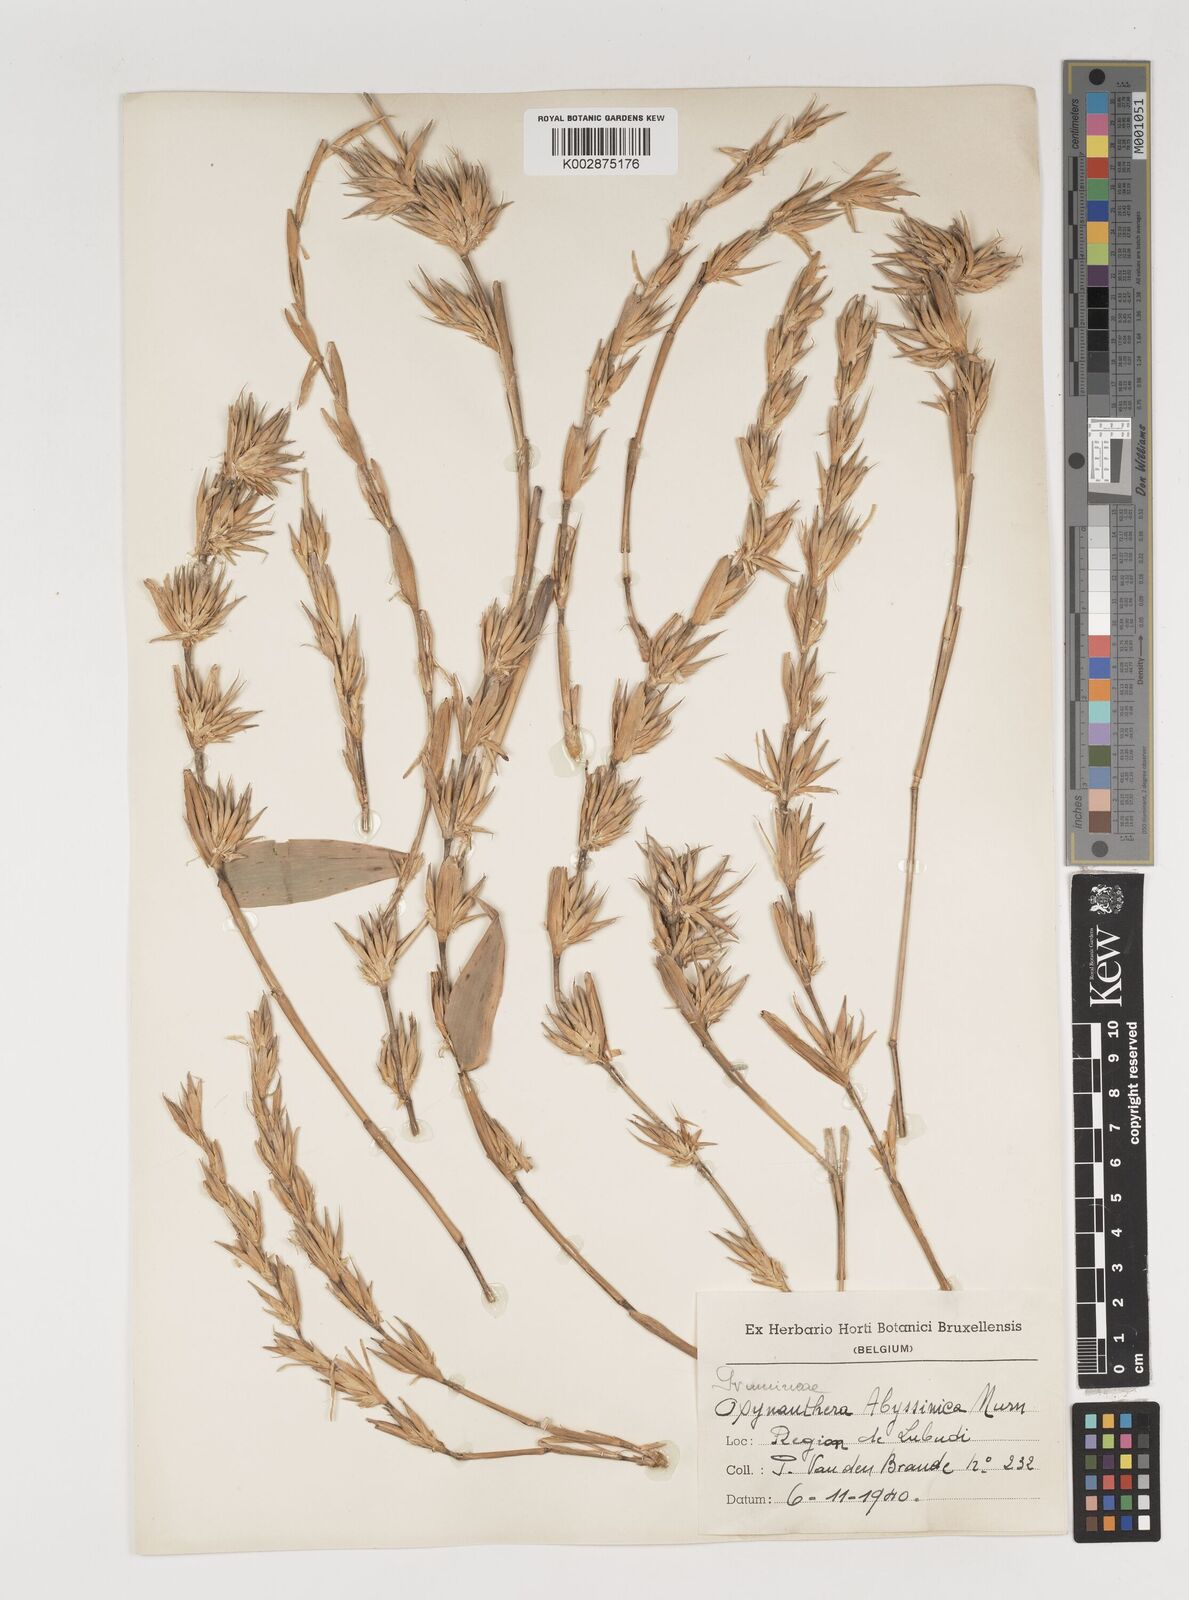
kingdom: Plantae
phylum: Tracheophyta
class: Liliopsida
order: Poales
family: Poaceae
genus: Oxytenanthera
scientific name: Oxytenanthera abyssinica
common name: Wine bamboo
